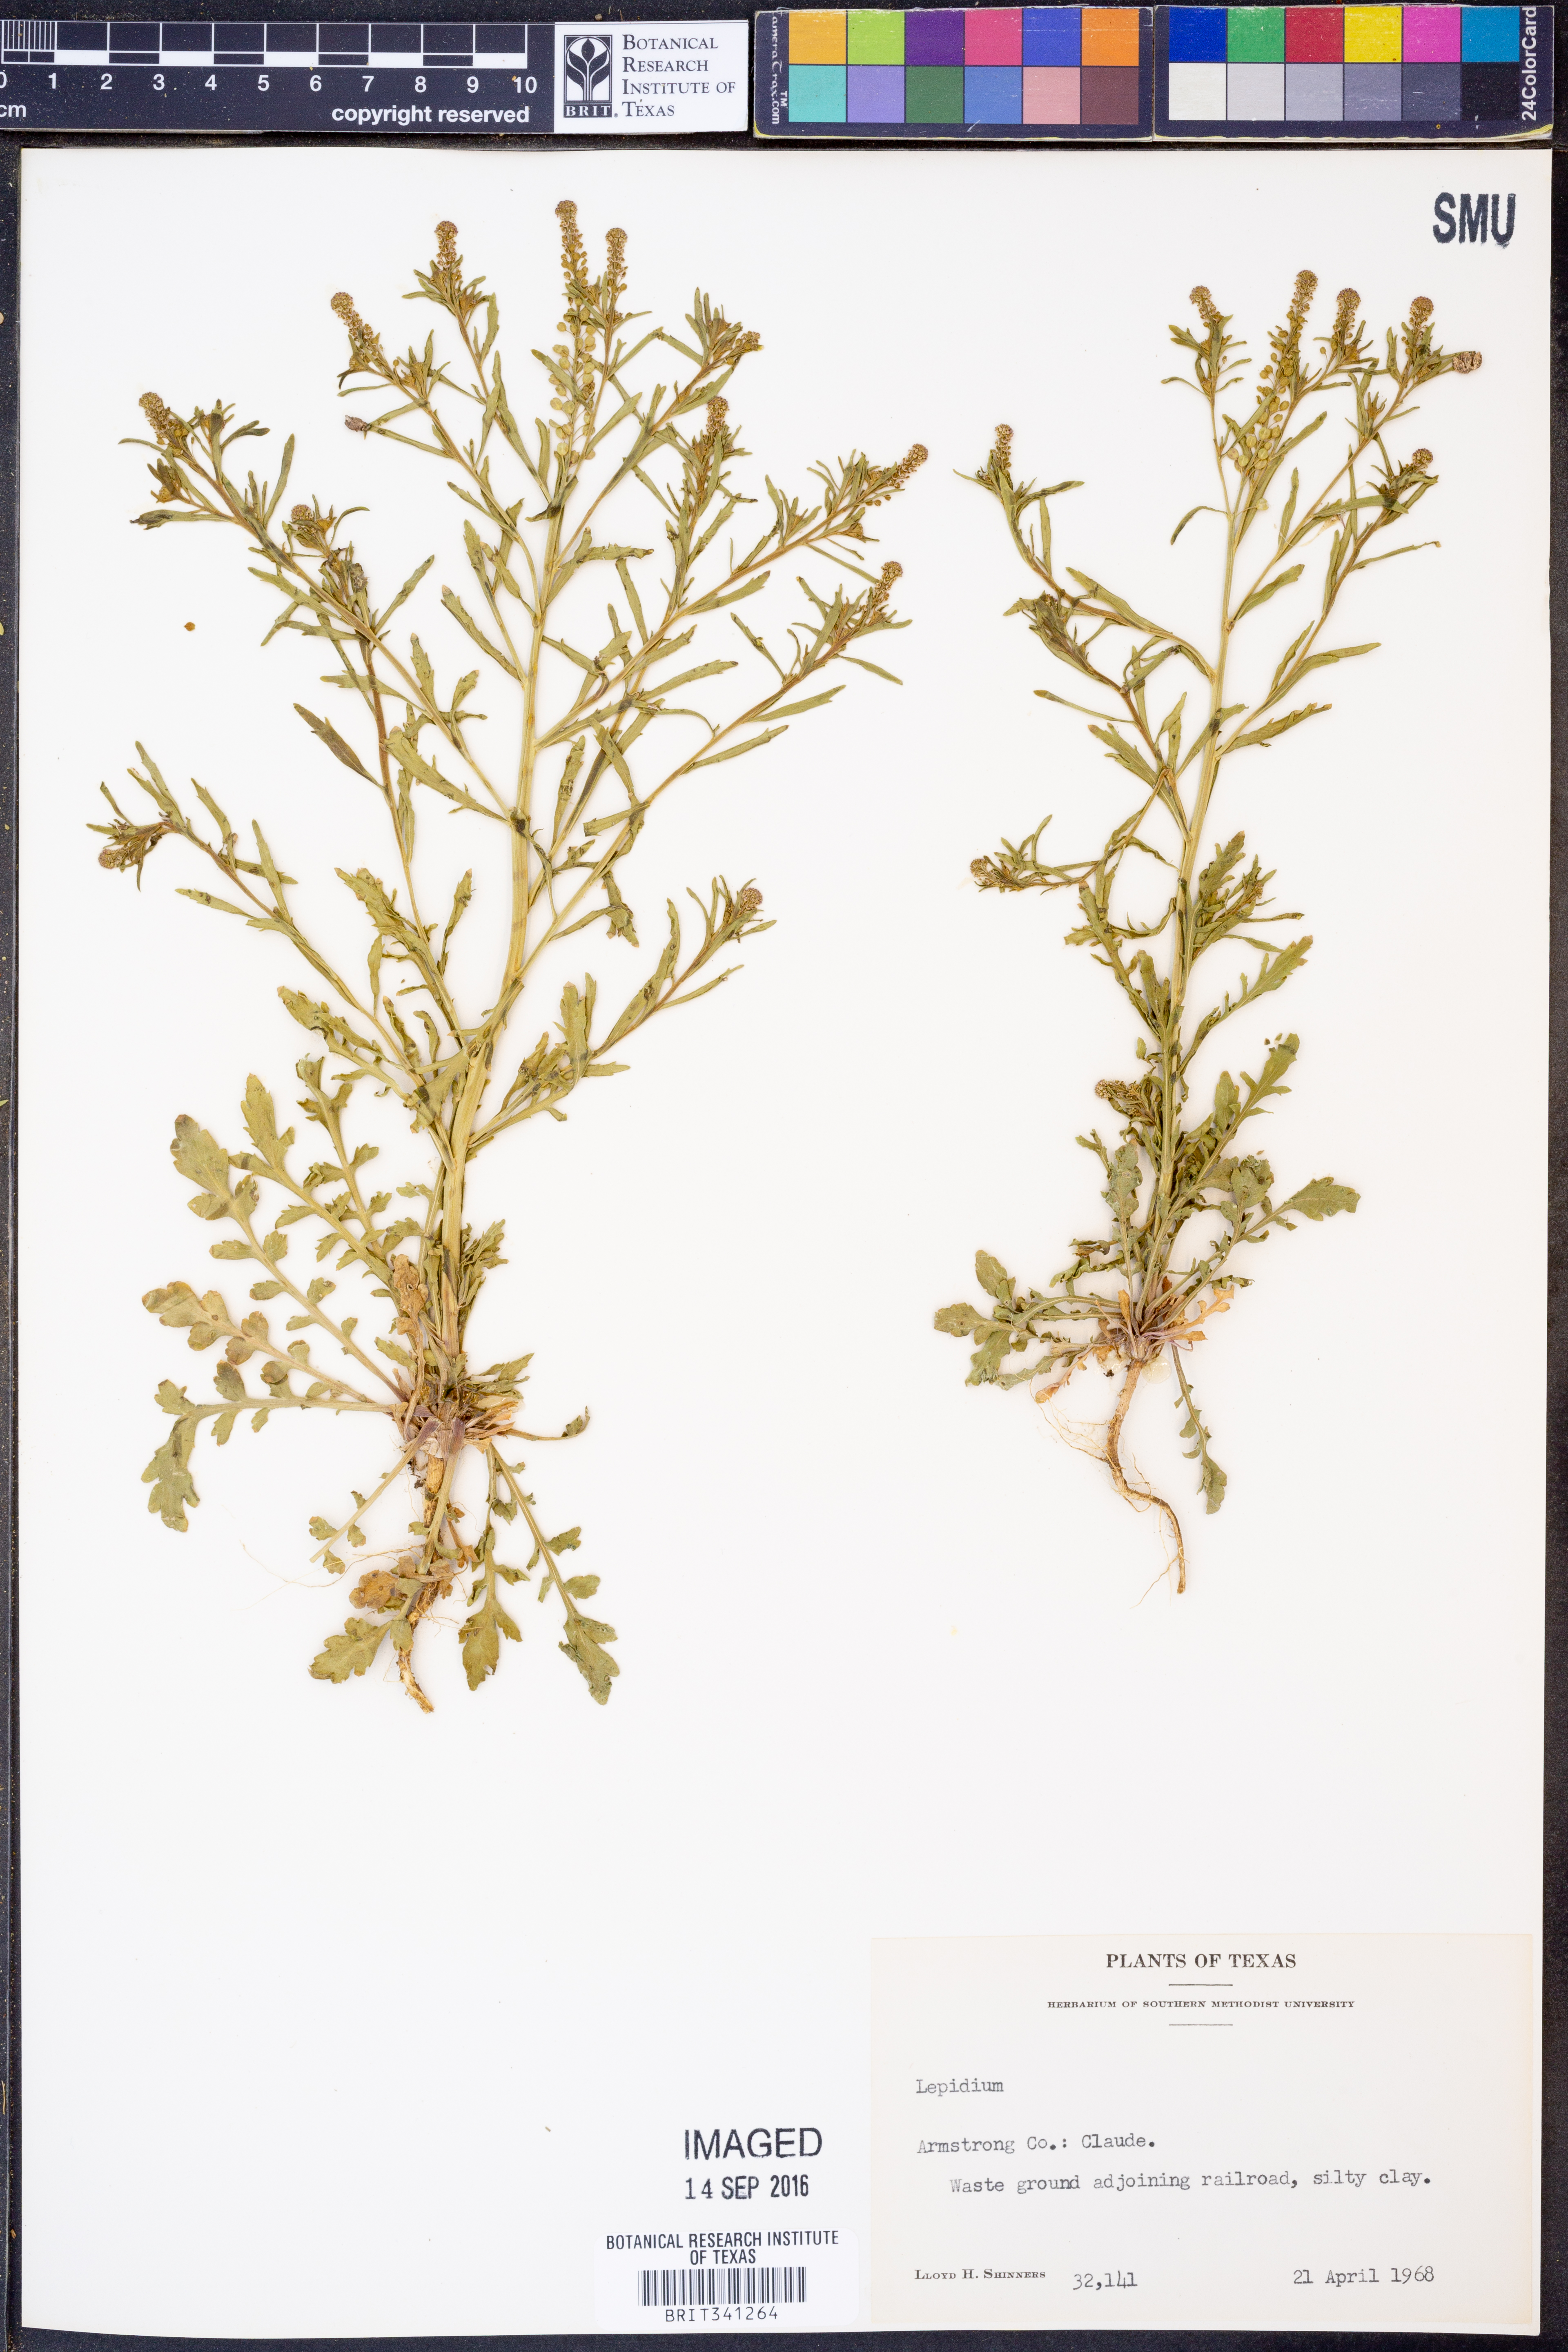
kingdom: Plantae
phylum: Tracheophyta
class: Magnoliopsida
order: Brassicales
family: Brassicaceae
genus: Lepidium
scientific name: Lepidium
